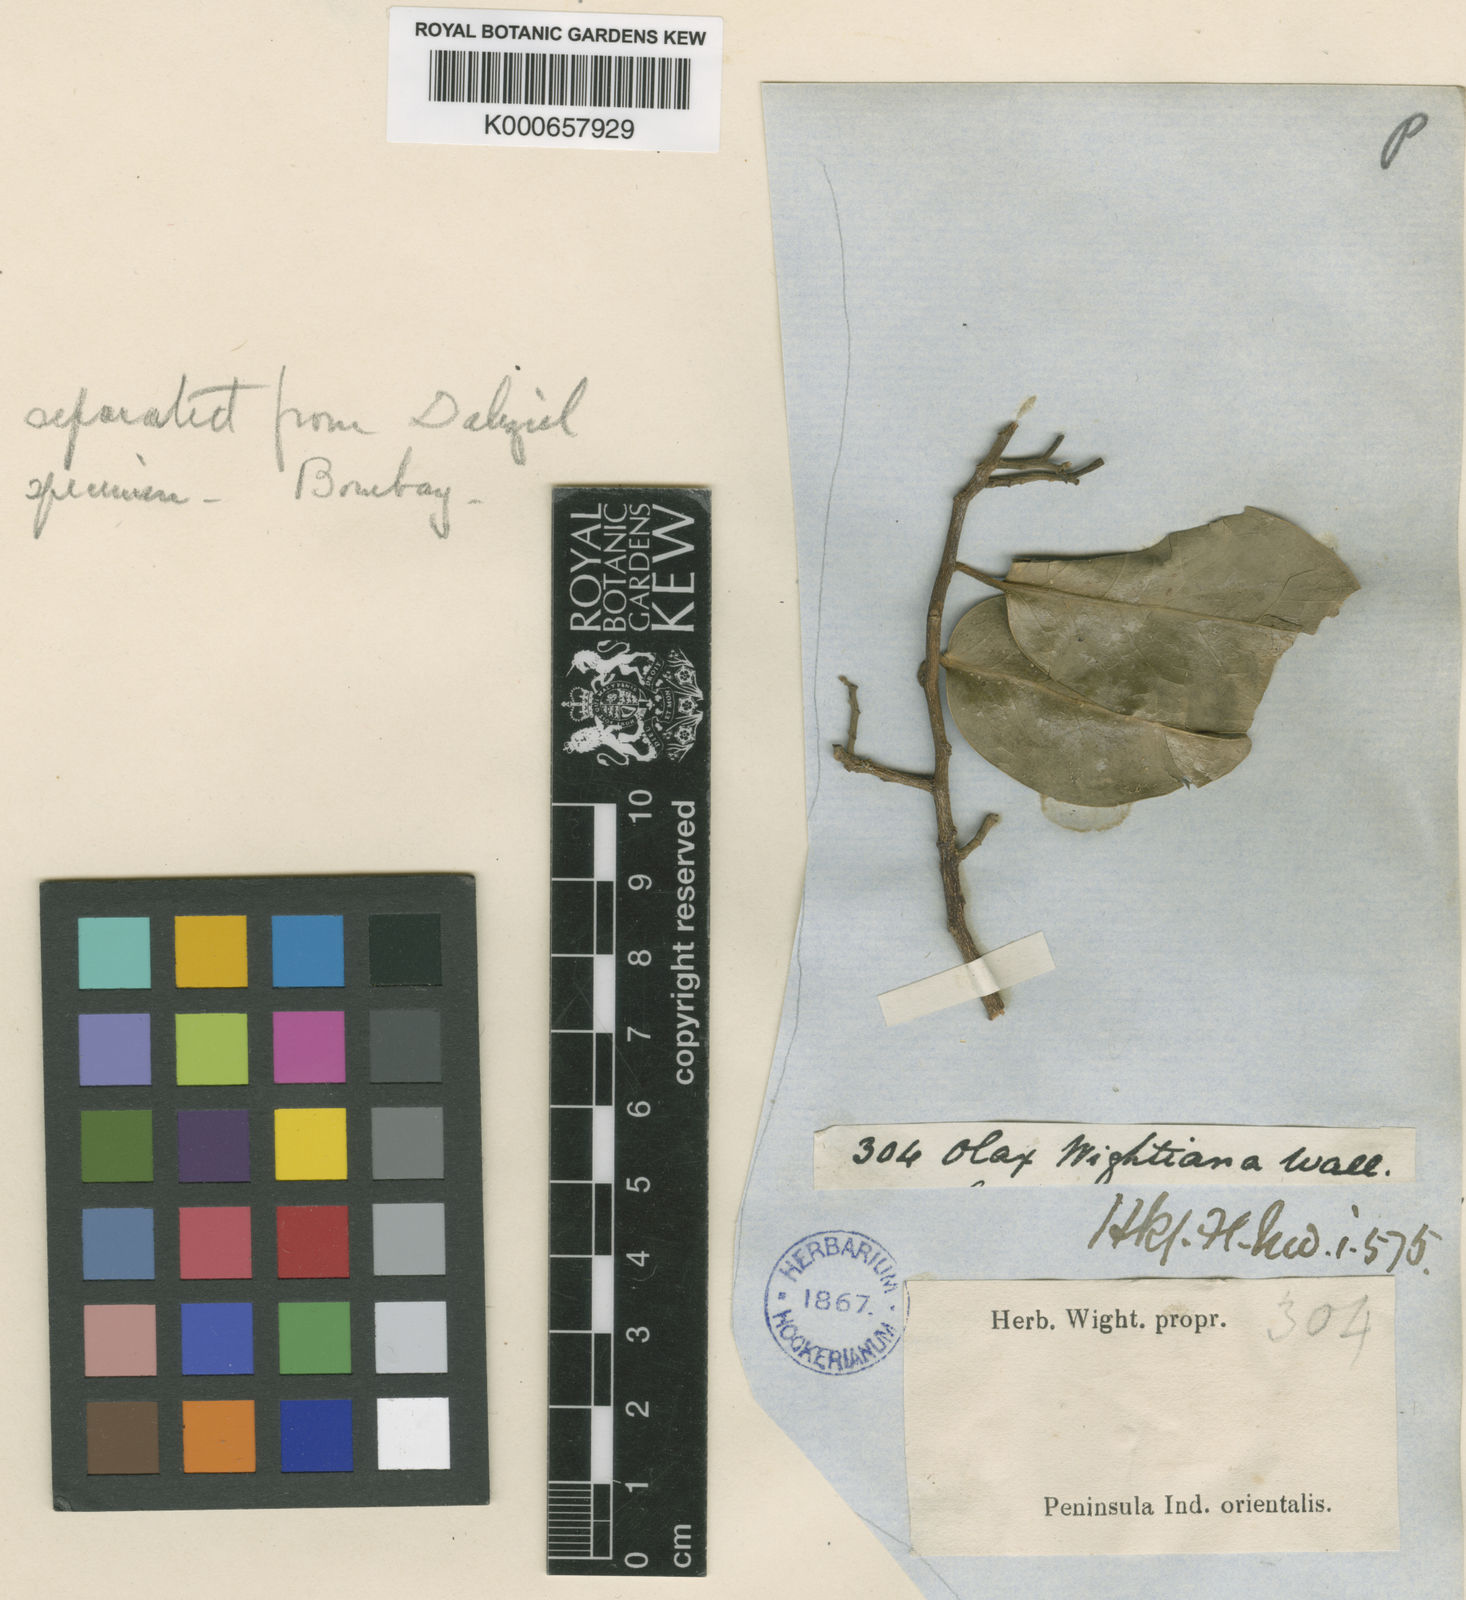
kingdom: Plantae
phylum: Tracheophyta
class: Magnoliopsida
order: Santalales
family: Olacaceae
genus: Olax
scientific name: Olax imbricata
